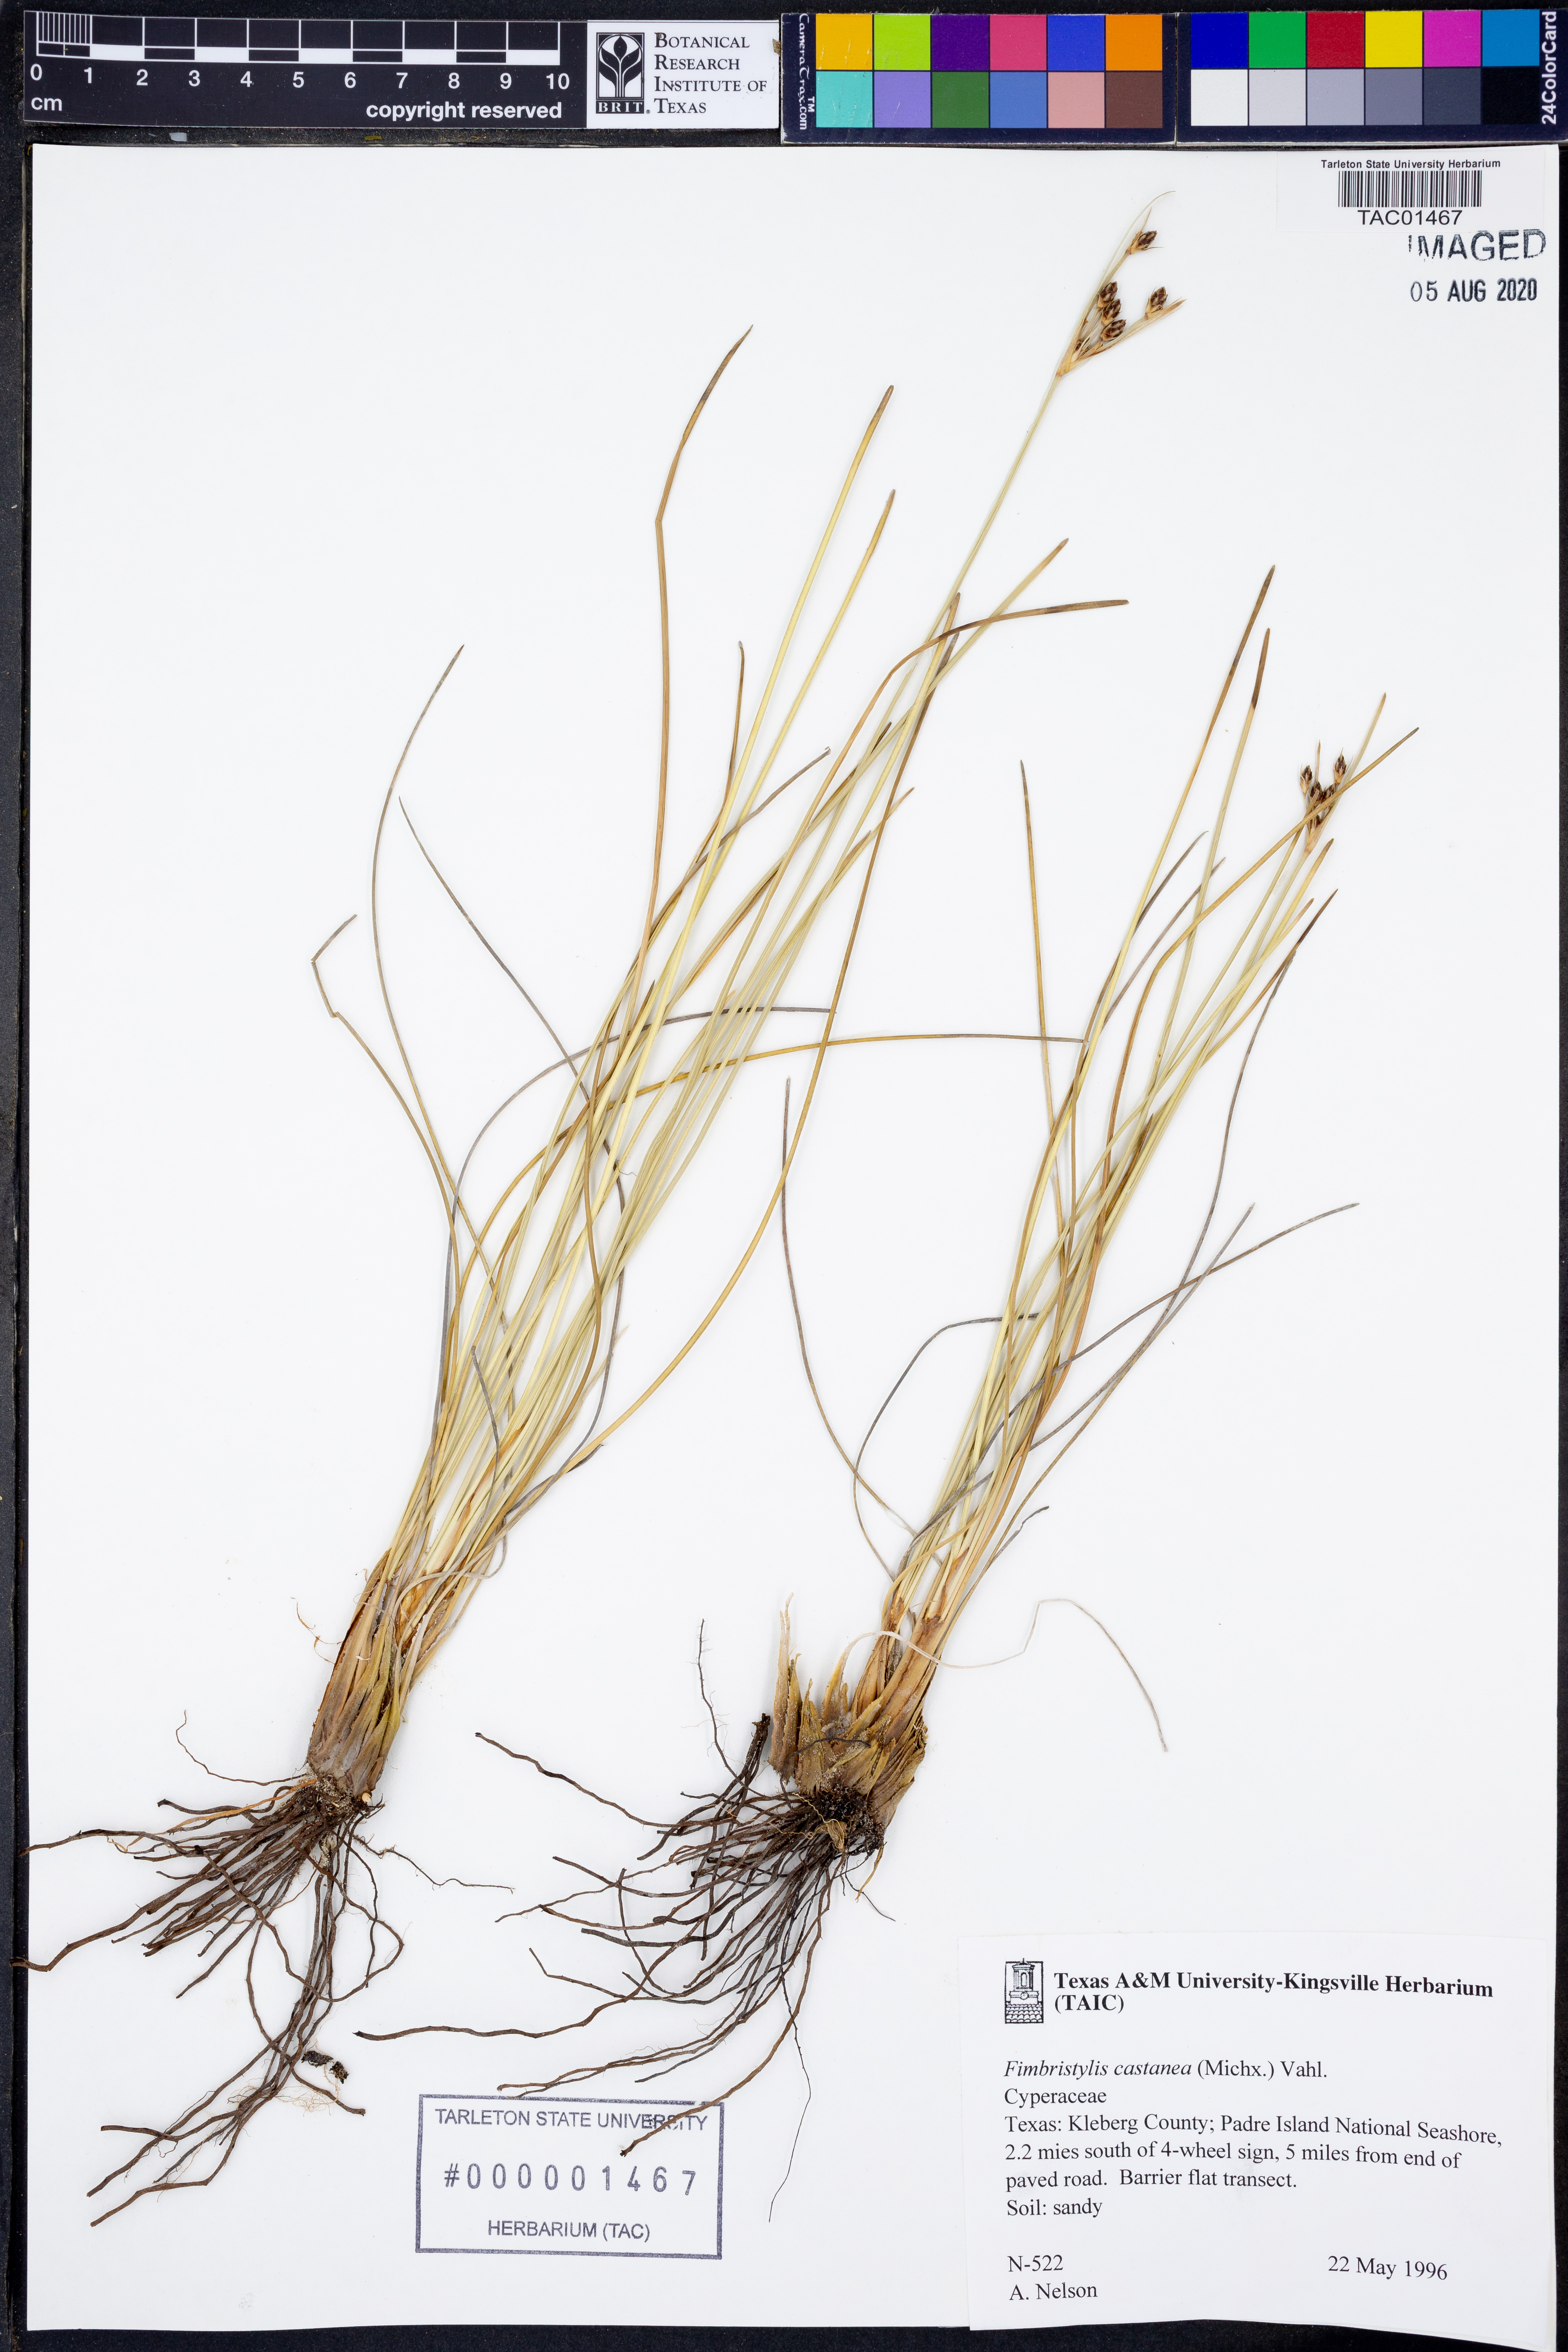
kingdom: Plantae
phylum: Tracheophyta
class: Liliopsida
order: Poales
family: Cyperaceae
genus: Fimbristylis
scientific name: Fimbristylis spadicea
